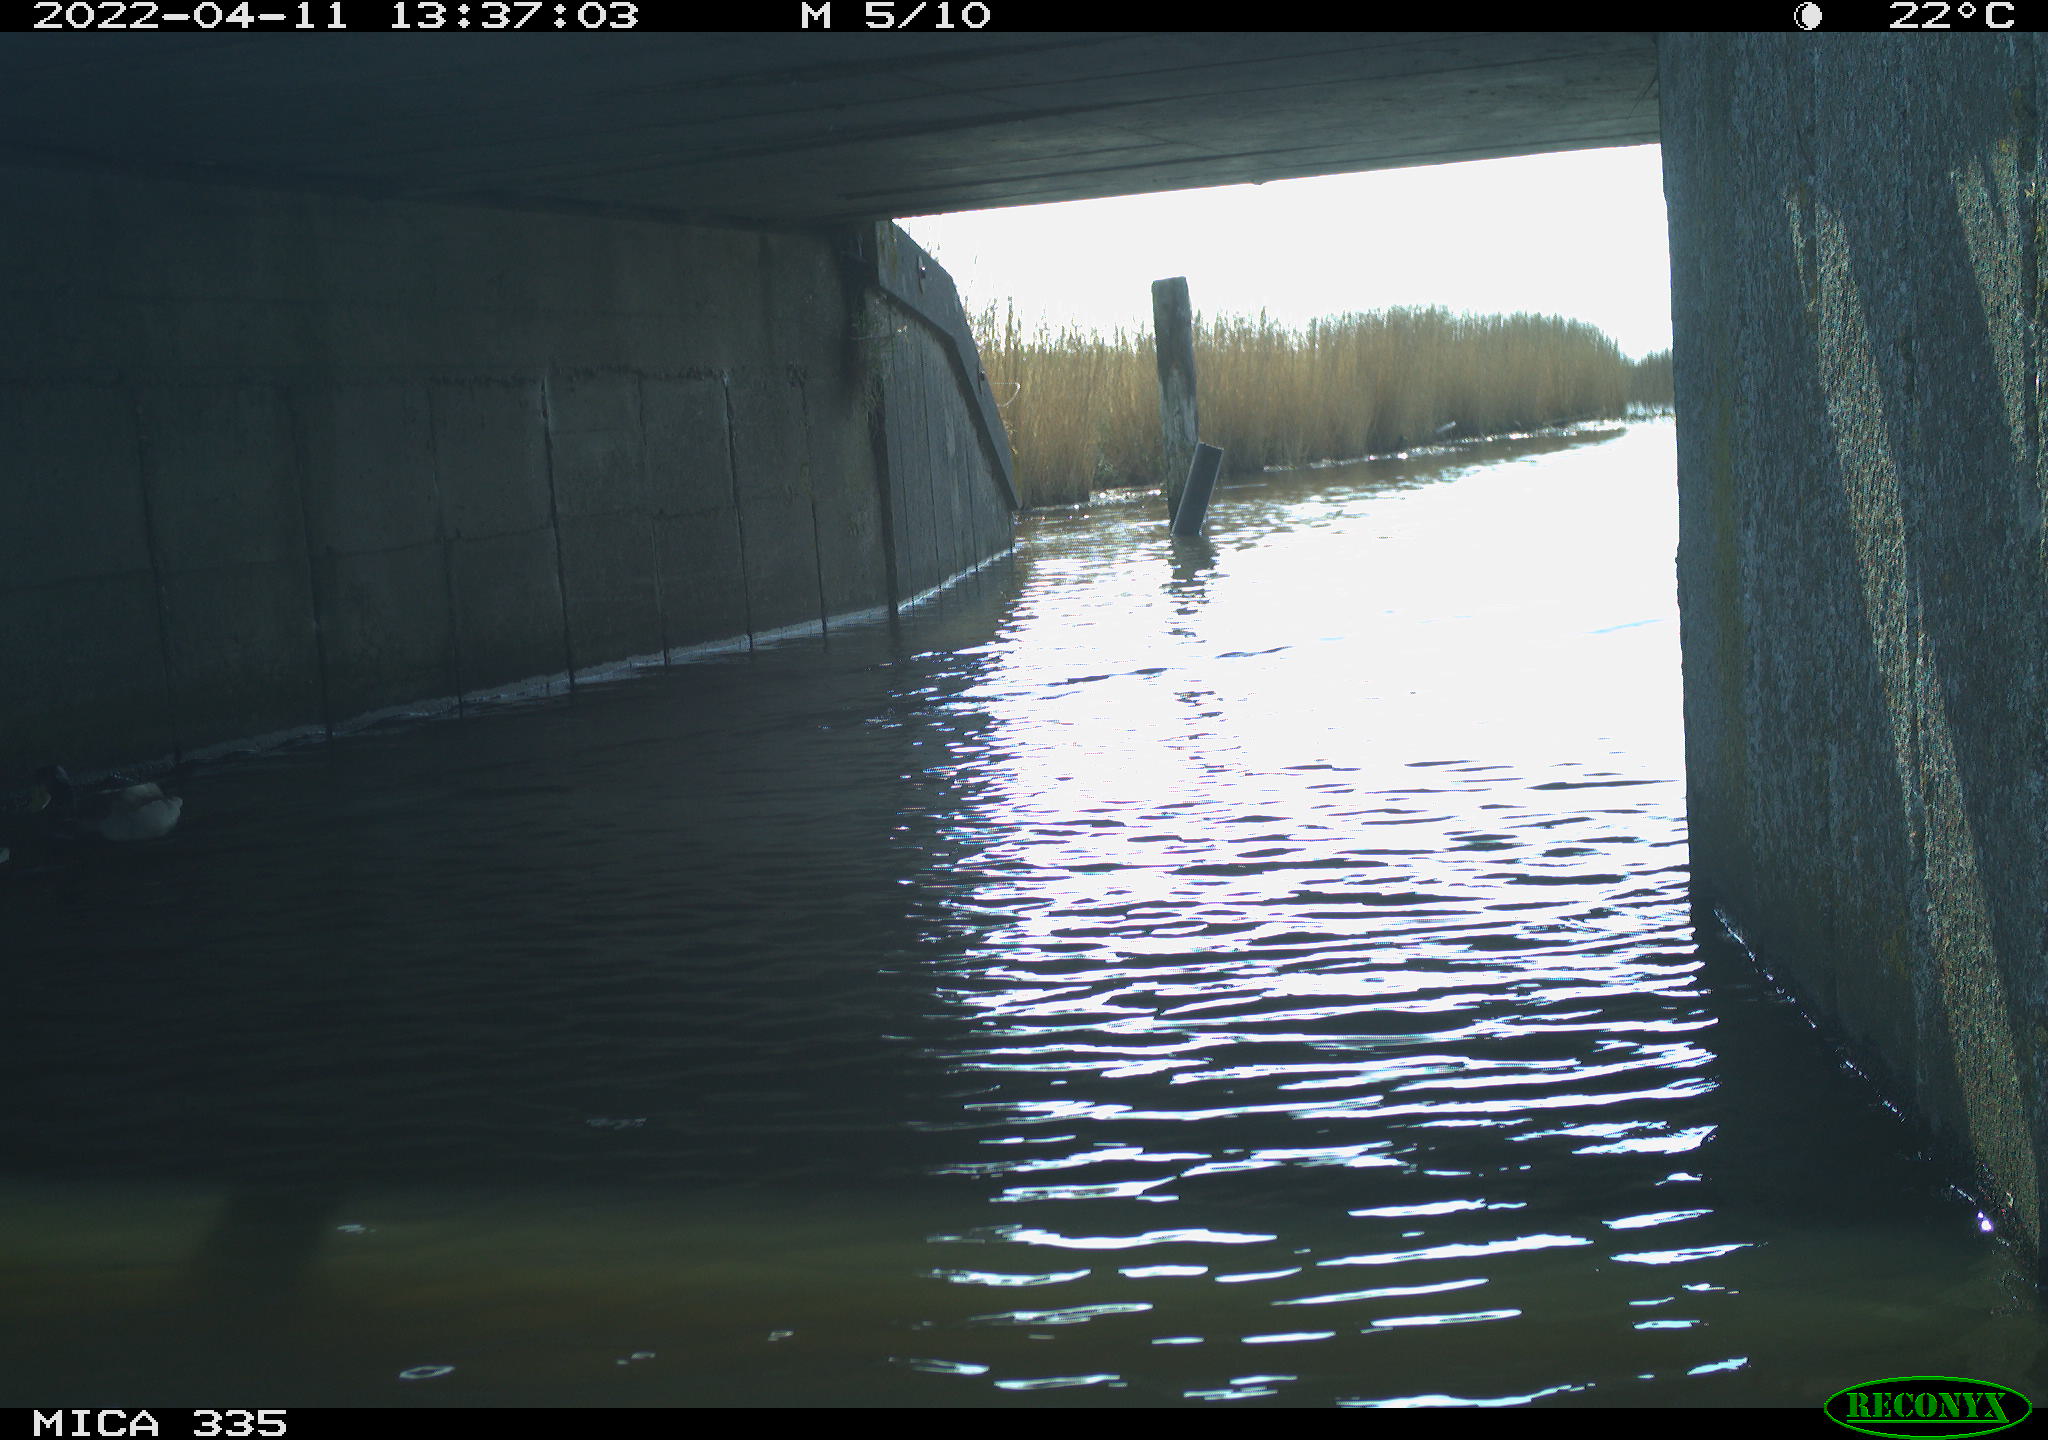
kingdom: Animalia
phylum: Chordata
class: Aves
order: Anseriformes
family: Anatidae
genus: Anas
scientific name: Anas platyrhynchos
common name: Mallard
